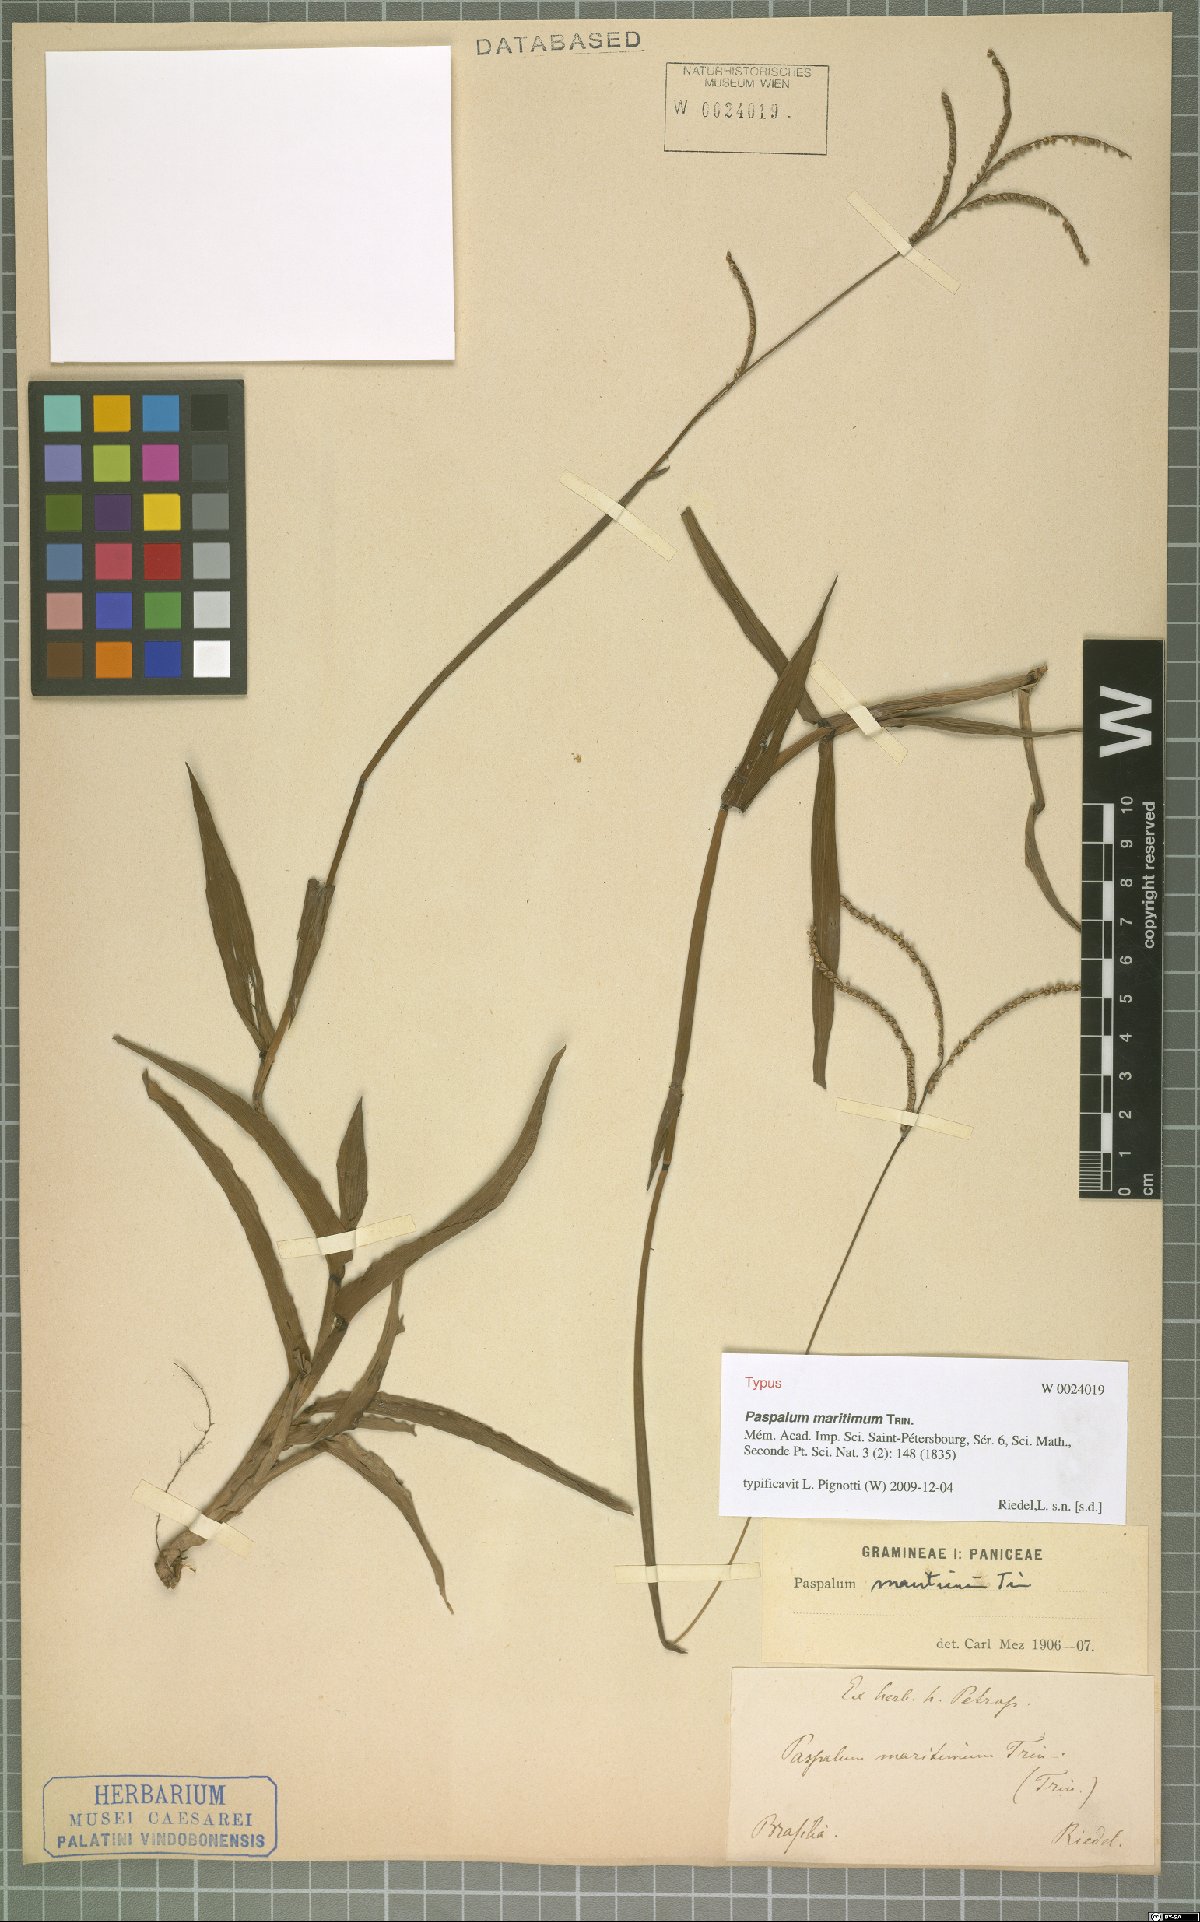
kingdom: Plantae
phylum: Tracheophyta
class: Liliopsida
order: Poales
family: Poaceae
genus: Paspalum
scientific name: Paspalum maritimum
